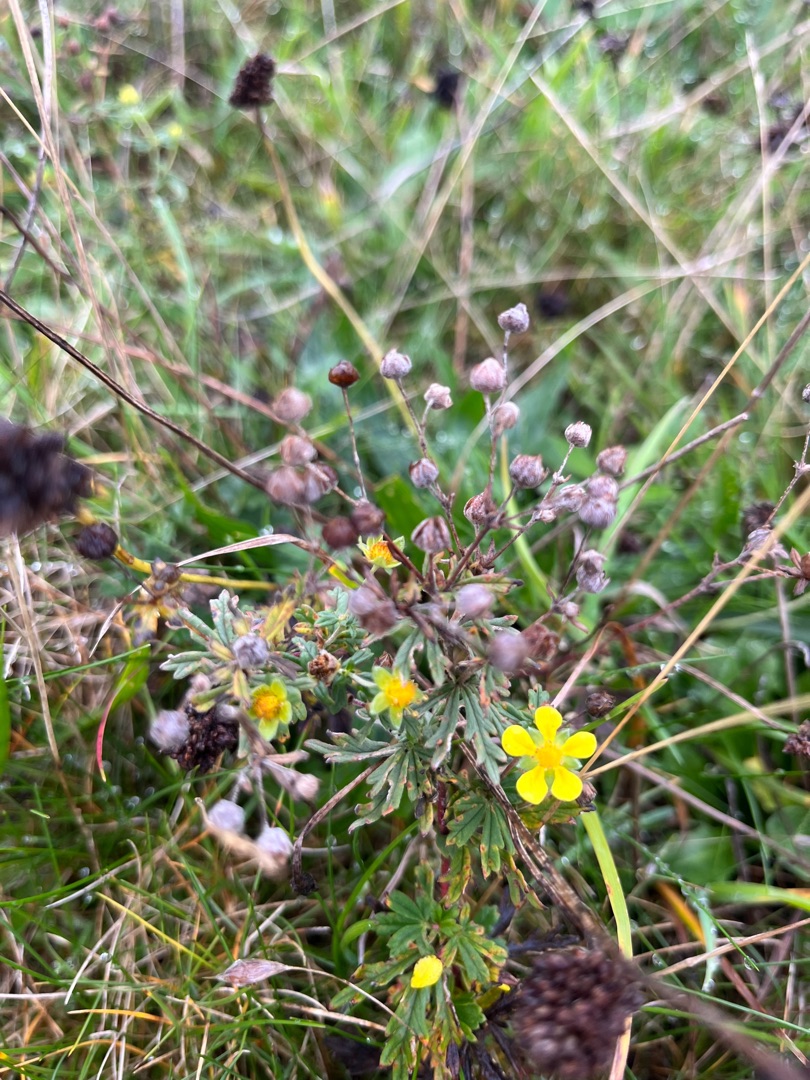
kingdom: Plantae
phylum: Tracheophyta
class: Magnoliopsida
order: Rosales
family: Rosaceae
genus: Potentilla
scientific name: Potentilla argentea
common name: Sølv-potentil
